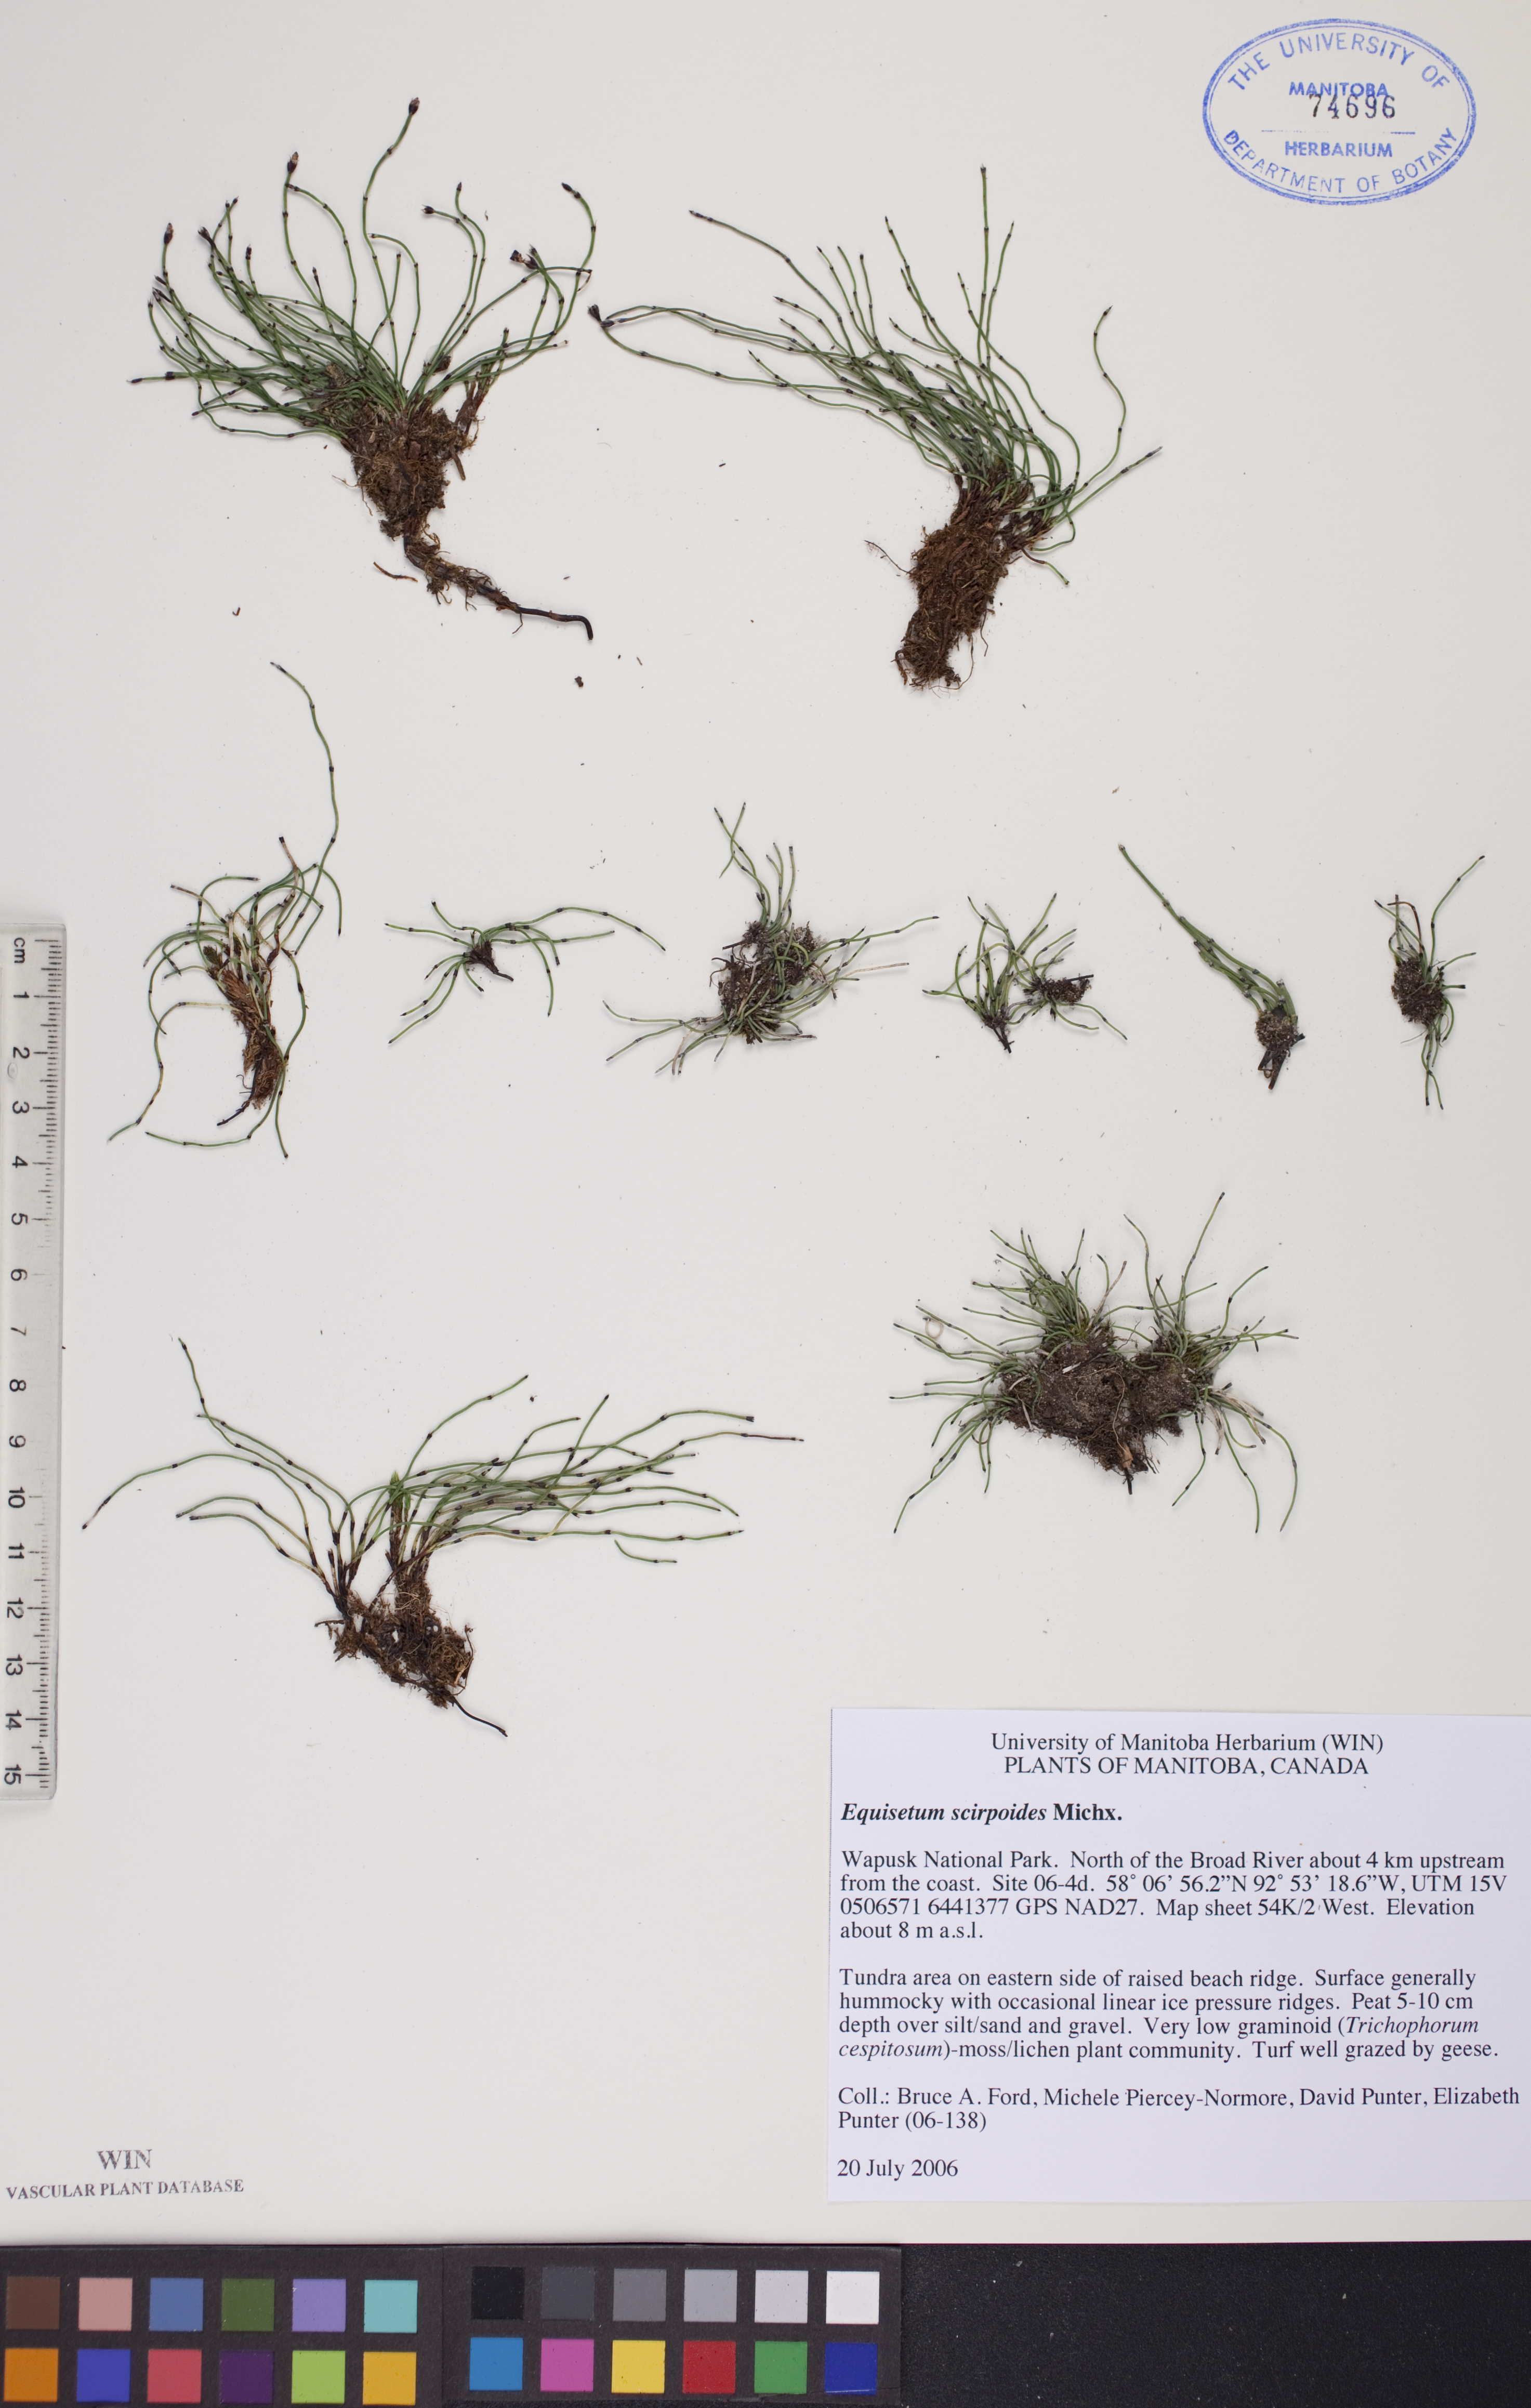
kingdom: Plantae
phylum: Tracheophyta
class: Polypodiopsida
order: Equisetales
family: Equisetaceae
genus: Equisetum
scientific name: Equisetum scirpoides
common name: Delicate horsetail
